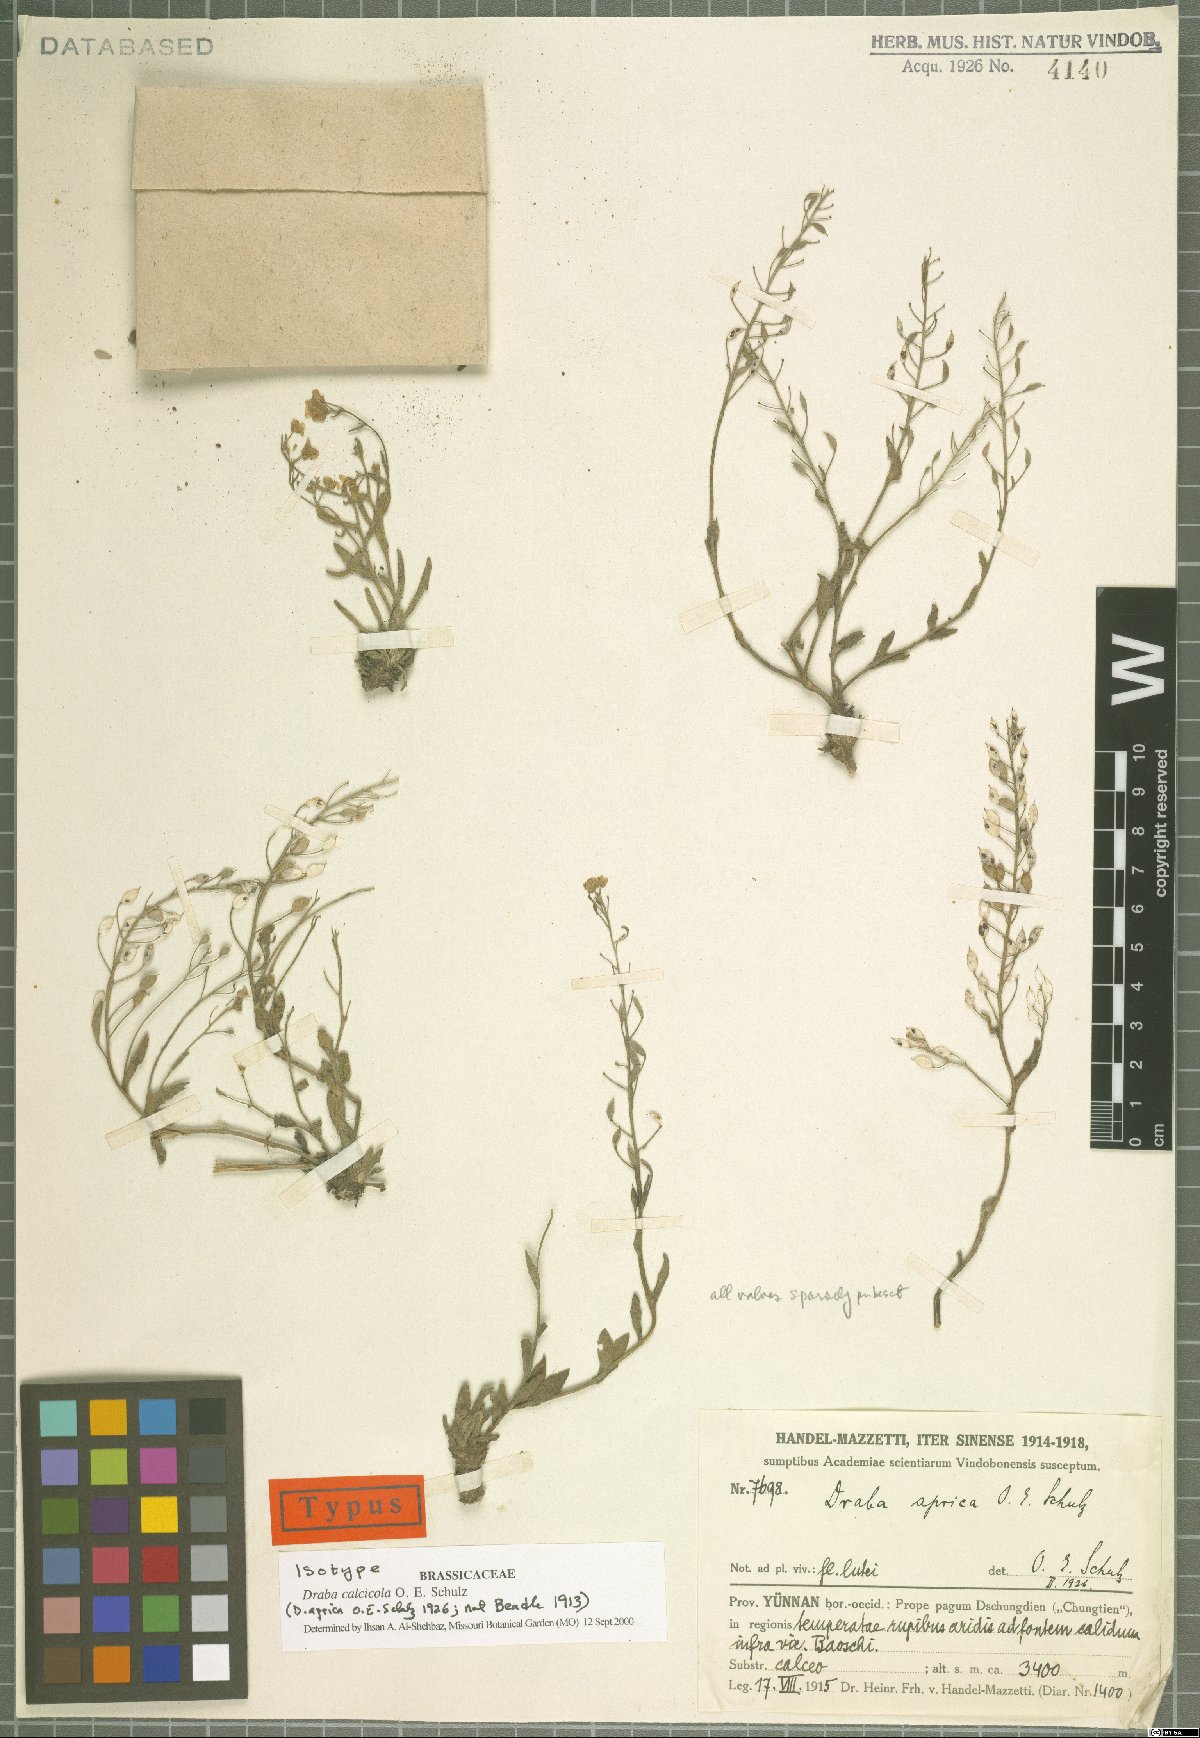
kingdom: Plantae
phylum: Tracheophyta
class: Magnoliopsida
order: Brassicales
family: Brassicaceae
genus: Draba
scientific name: Draba calcicola
